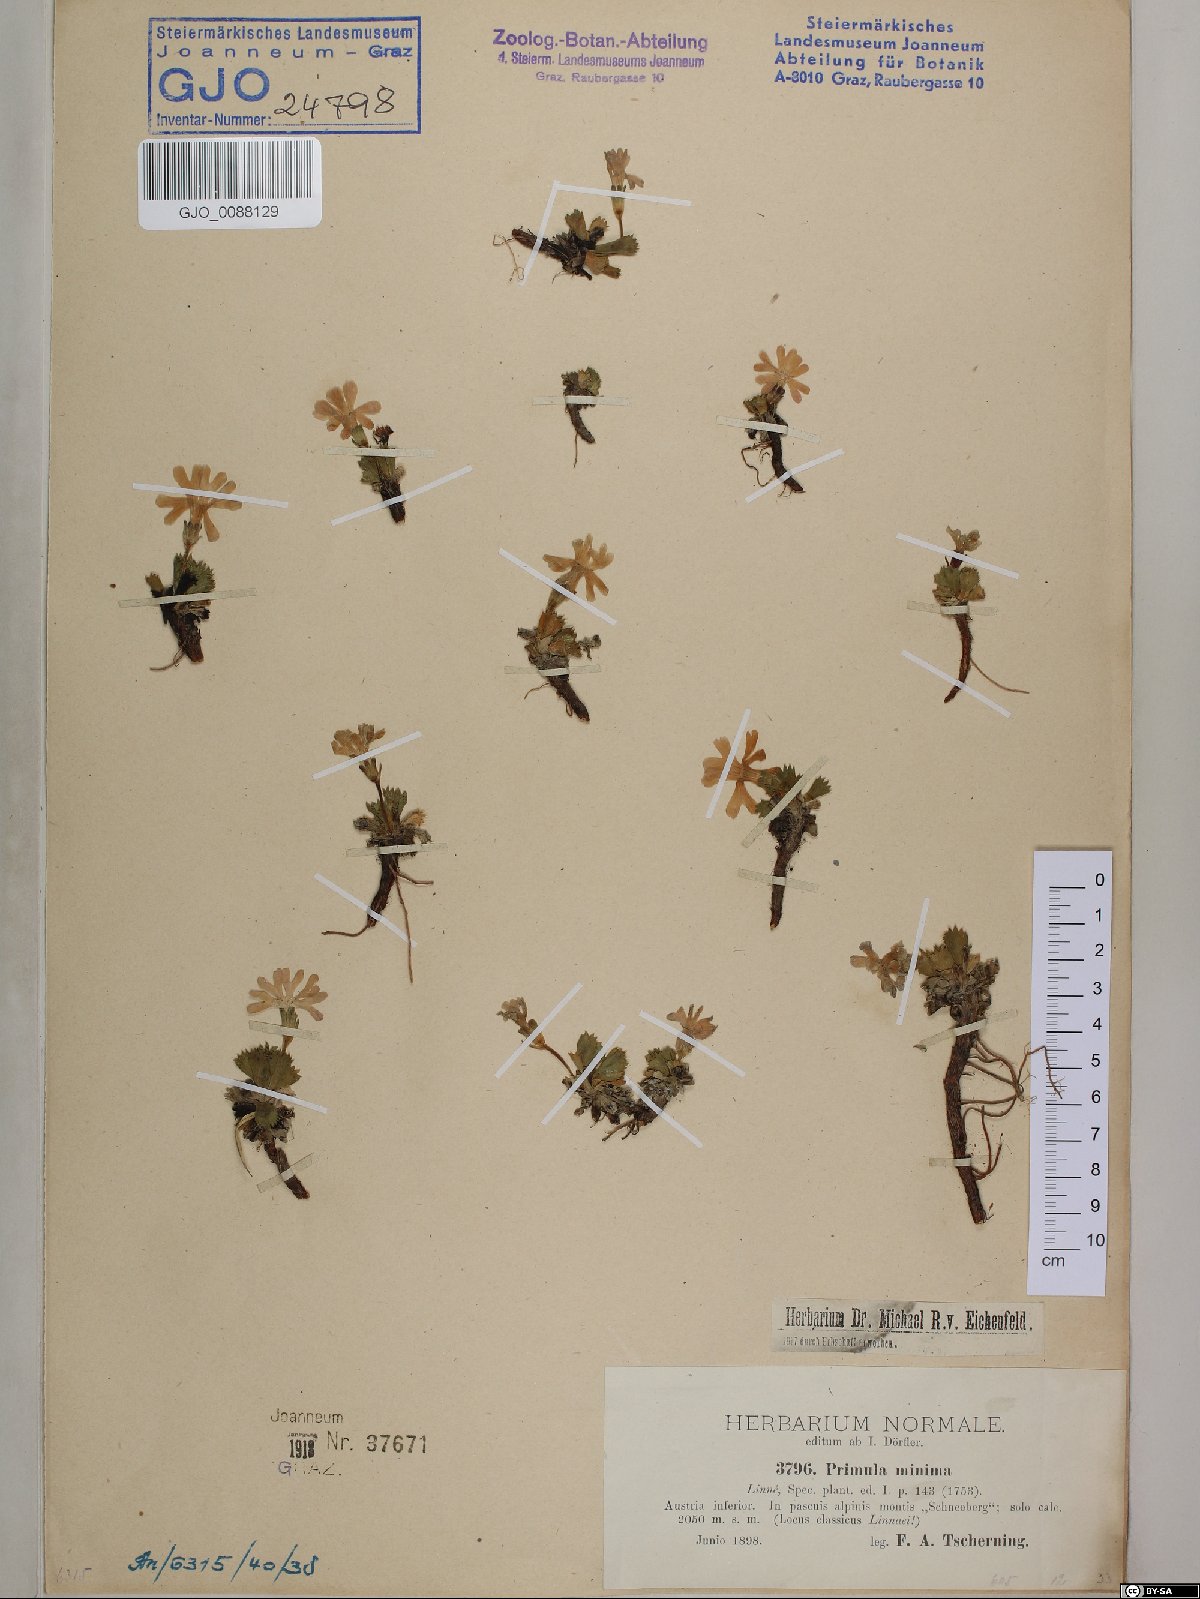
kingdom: Plantae
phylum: Tracheophyta
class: Magnoliopsida
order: Ericales
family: Primulaceae
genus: Primula
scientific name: Primula minima
